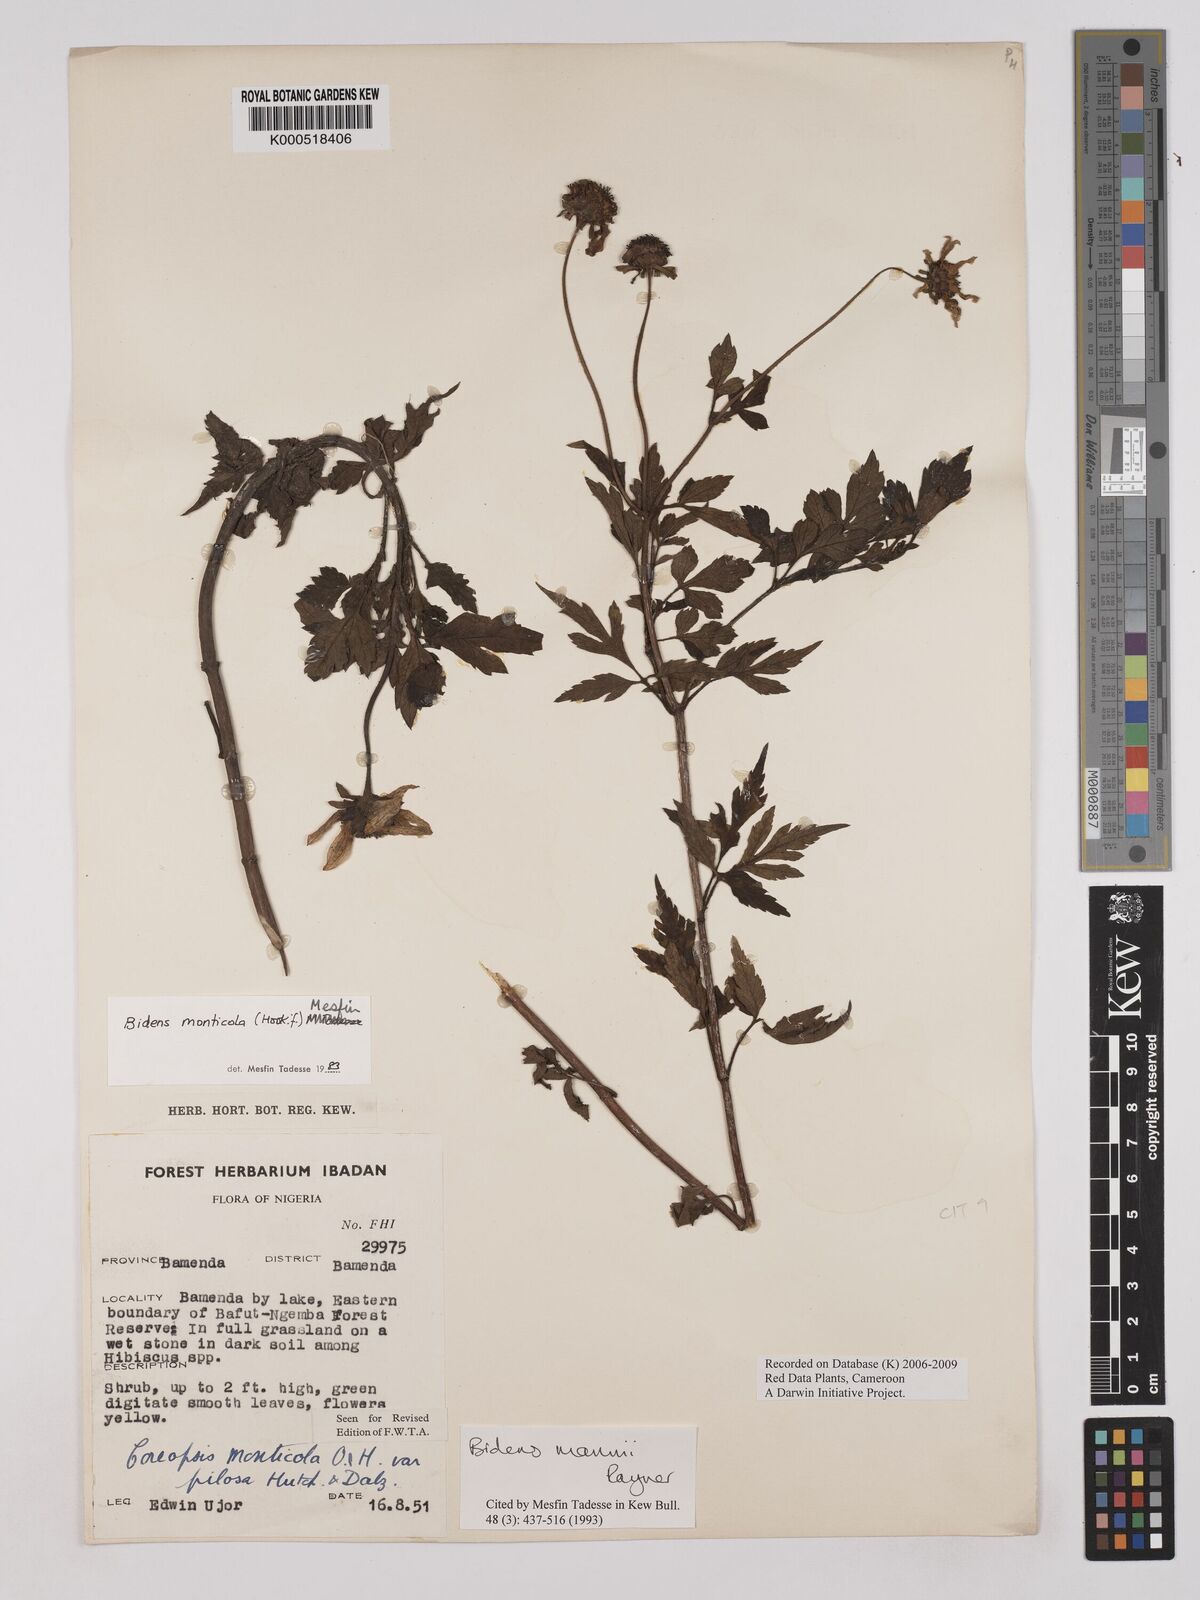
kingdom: Plantae
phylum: Tracheophyta
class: Magnoliopsida
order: Asterales
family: Asteraceae
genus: Bidens
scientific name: Bidens mannii
